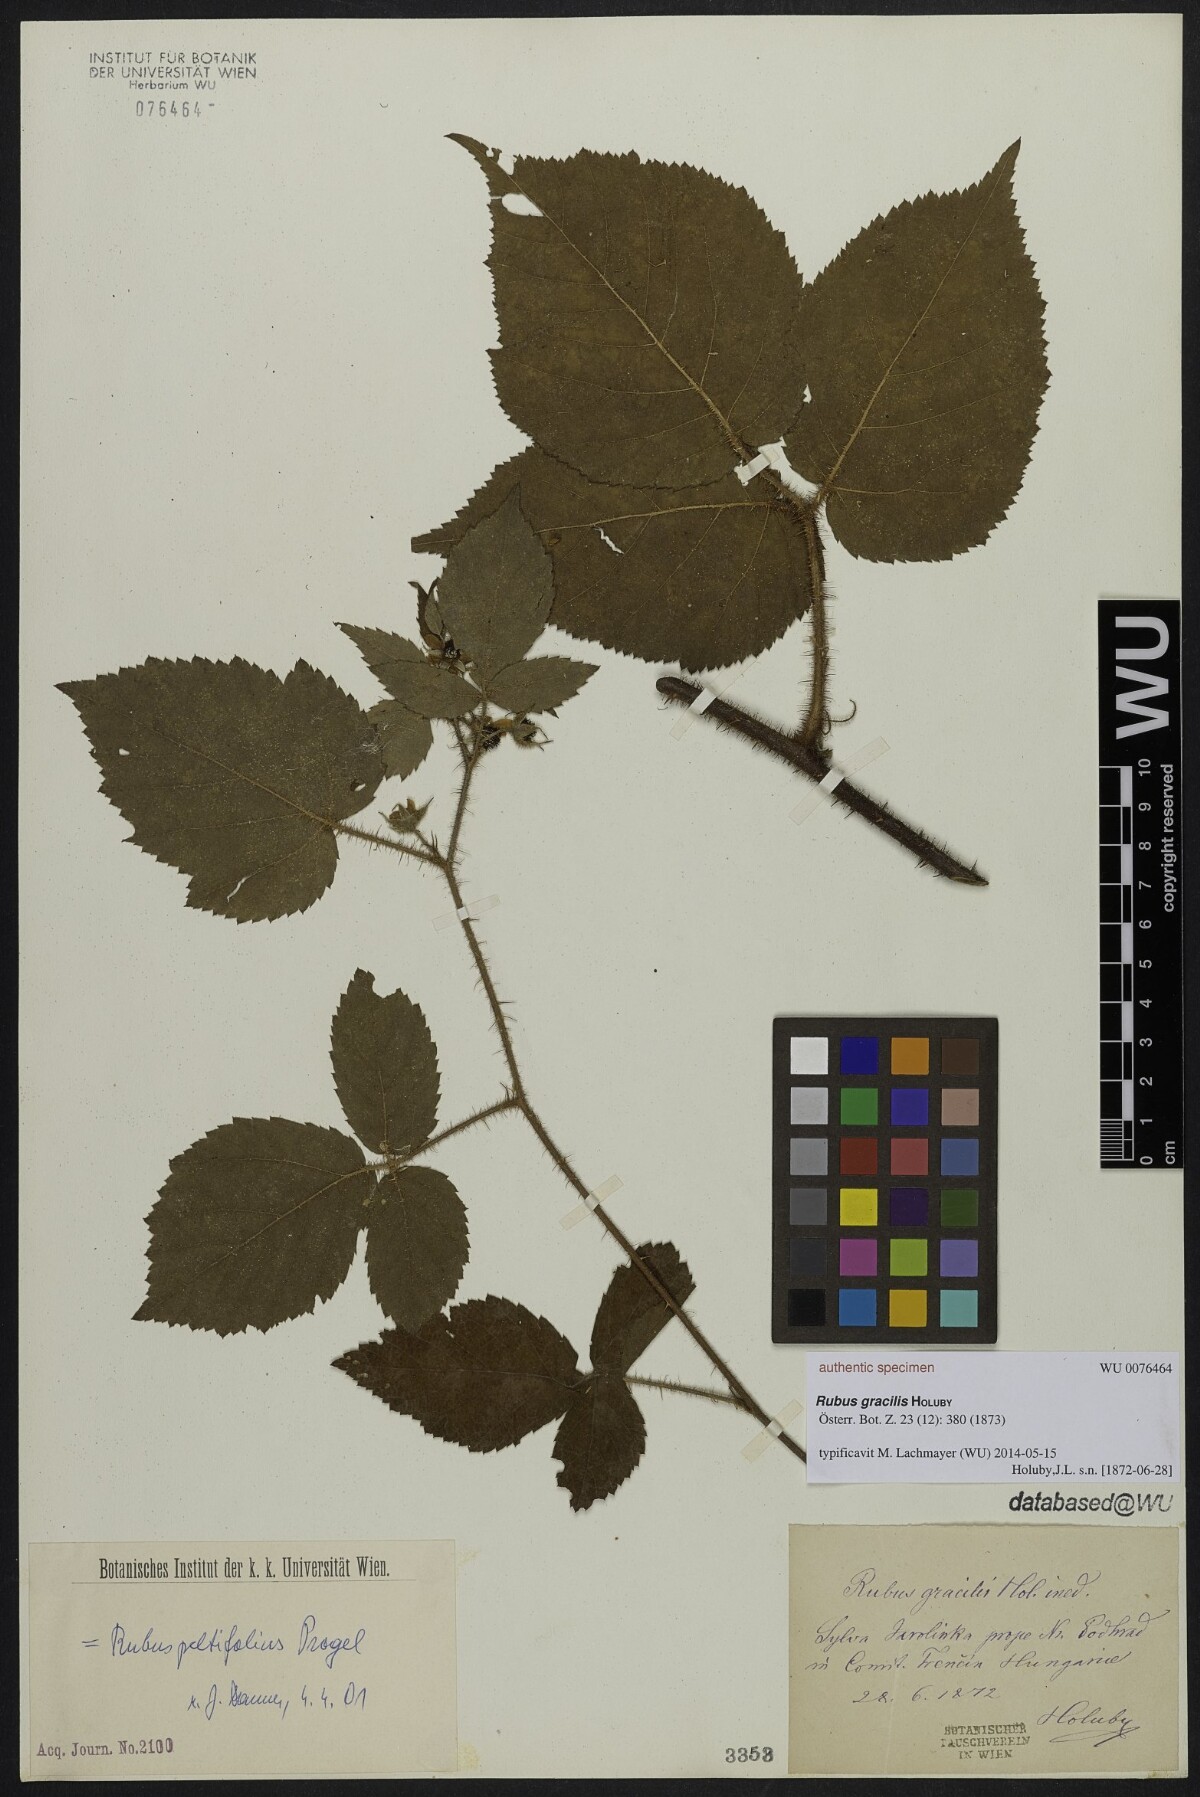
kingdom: Plantae
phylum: Tracheophyta
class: Magnoliopsida
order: Rosales
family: Rosaceae
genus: Rubus
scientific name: Rubus gracilis
